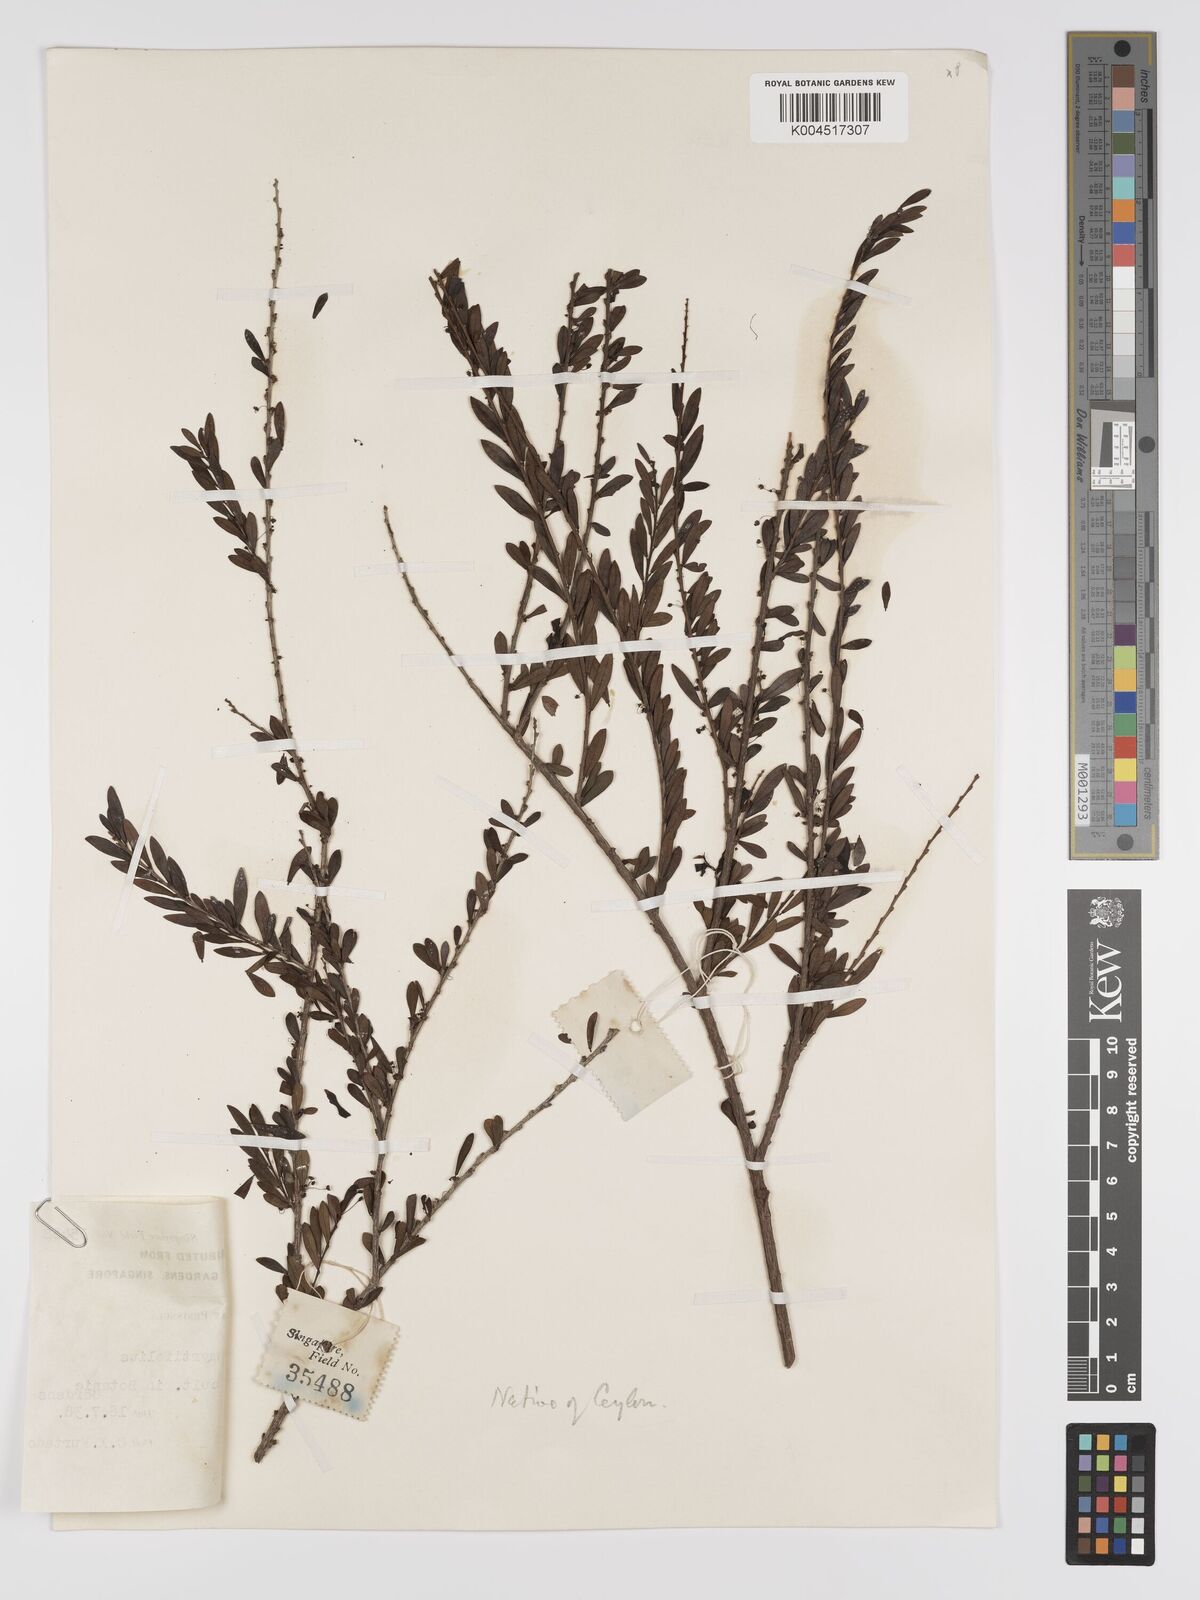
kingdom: Plantae
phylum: Tracheophyta
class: Magnoliopsida
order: Malpighiales
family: Phyllanthaceae
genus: Phyllanthus
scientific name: Phyllanthus myrtifolius
